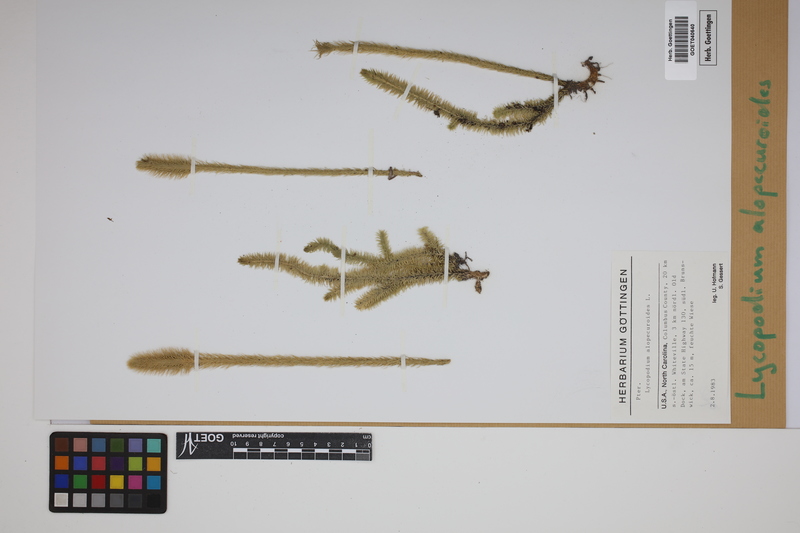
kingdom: Plantae
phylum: Tracheophyta
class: Lycopodiopsida
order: Lycopodiales
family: Lycopodiaceae
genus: Lycopodiella
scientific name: Lycopodiella alopecuroides
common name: Foxtail clubmoss
